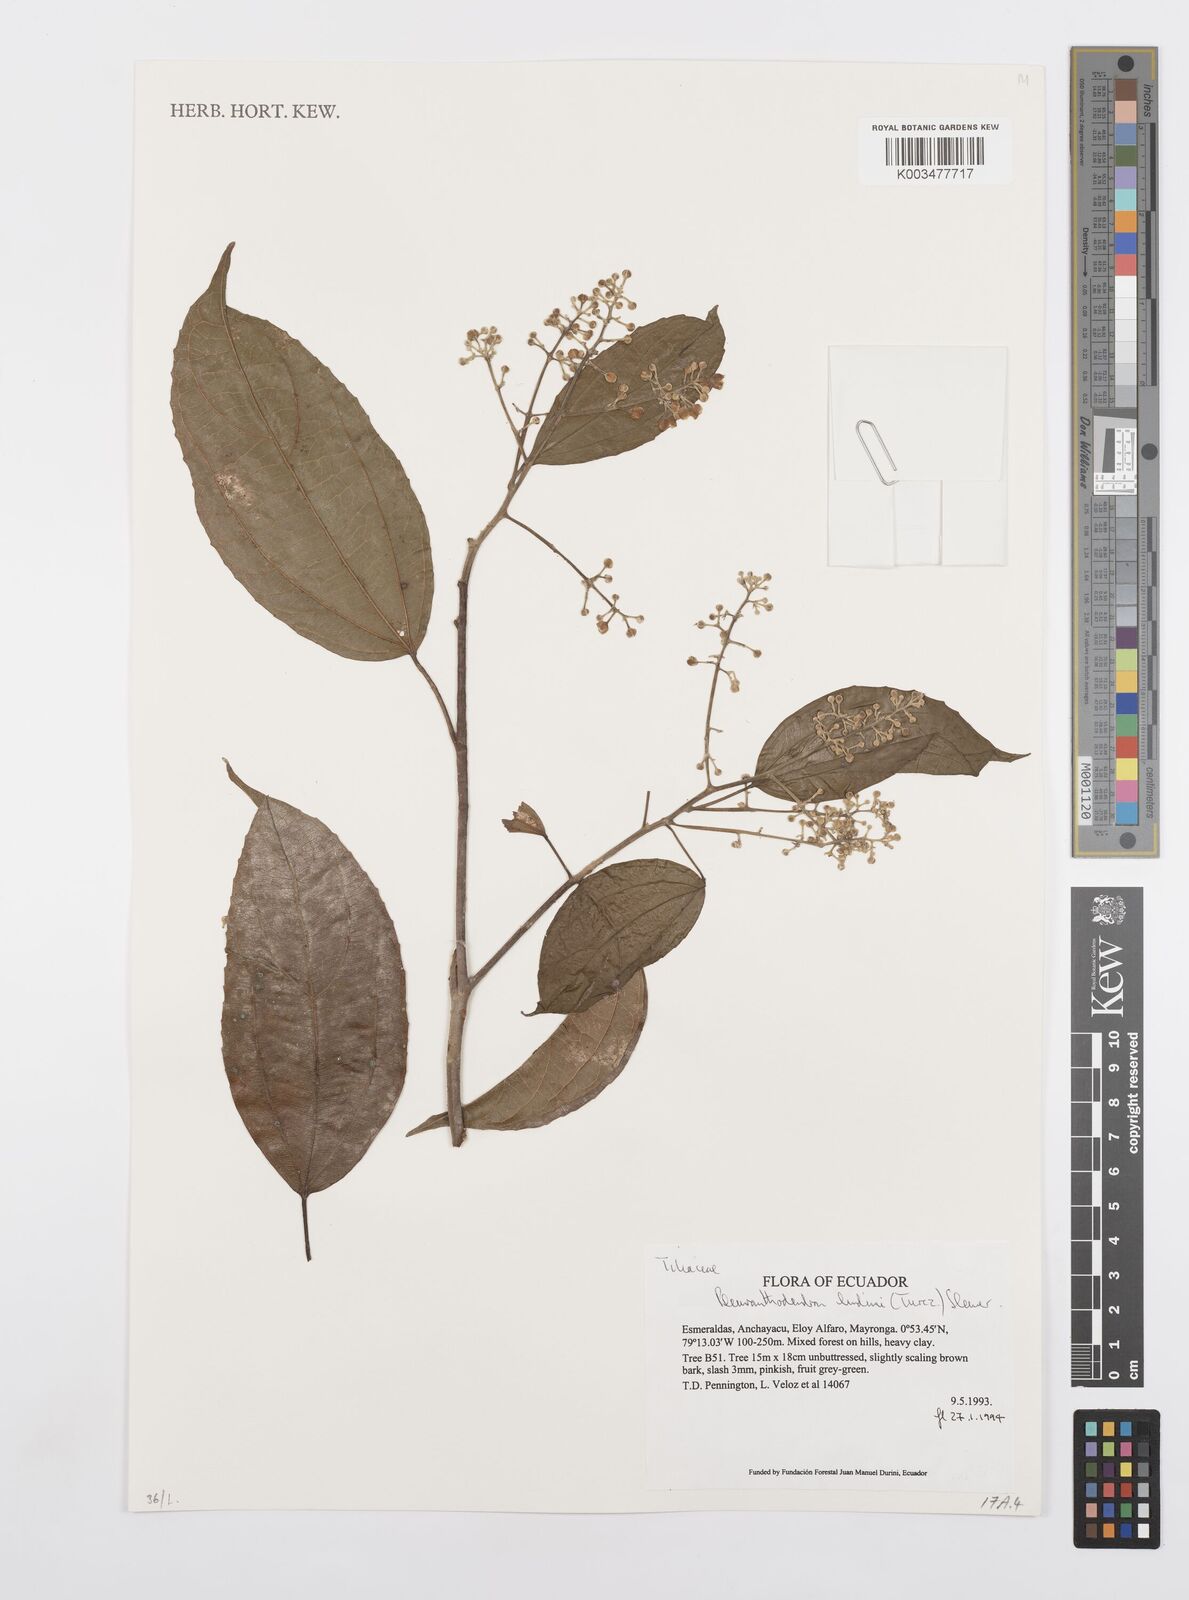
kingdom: Plantae
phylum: Tracheophyta
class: Magnoliopsida
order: Malpighiales
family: Salicaceae
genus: Pleuranthodendron
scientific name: Pleuranthodendron lindenii
